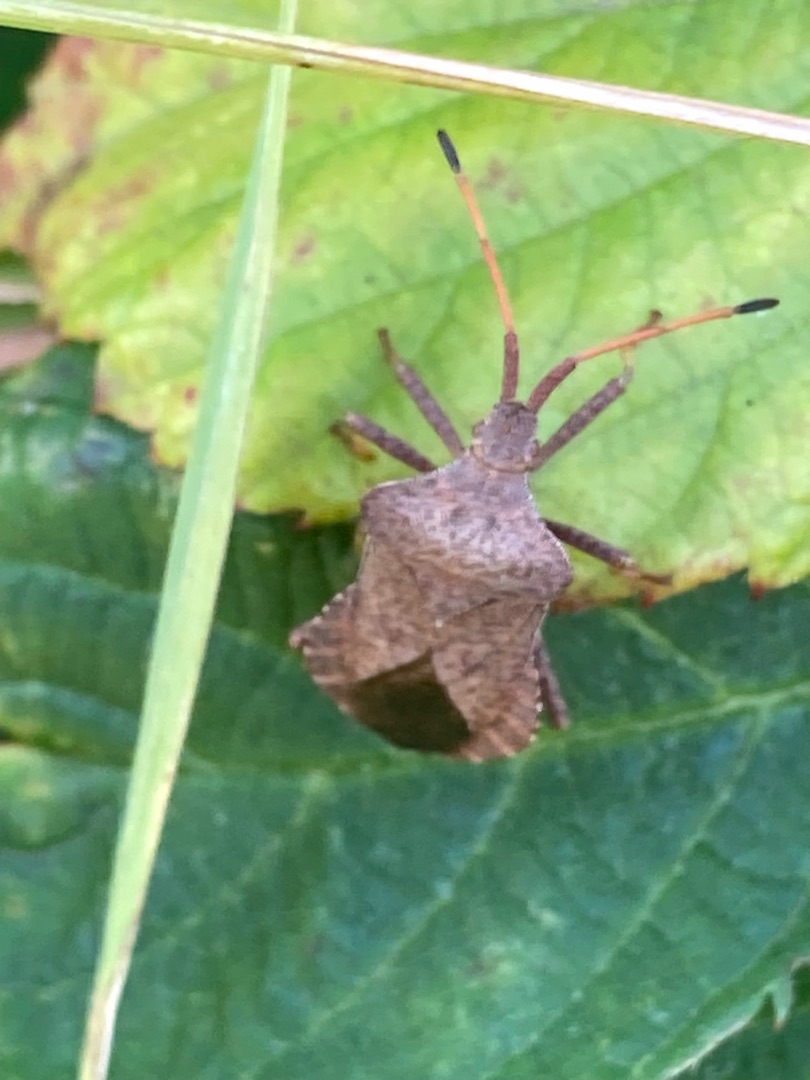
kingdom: Animalia
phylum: Arthropoda
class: Insecta
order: Hemiptera
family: Coreidae
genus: Coreus
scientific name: Coreus marginatus
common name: Skræppetæge
